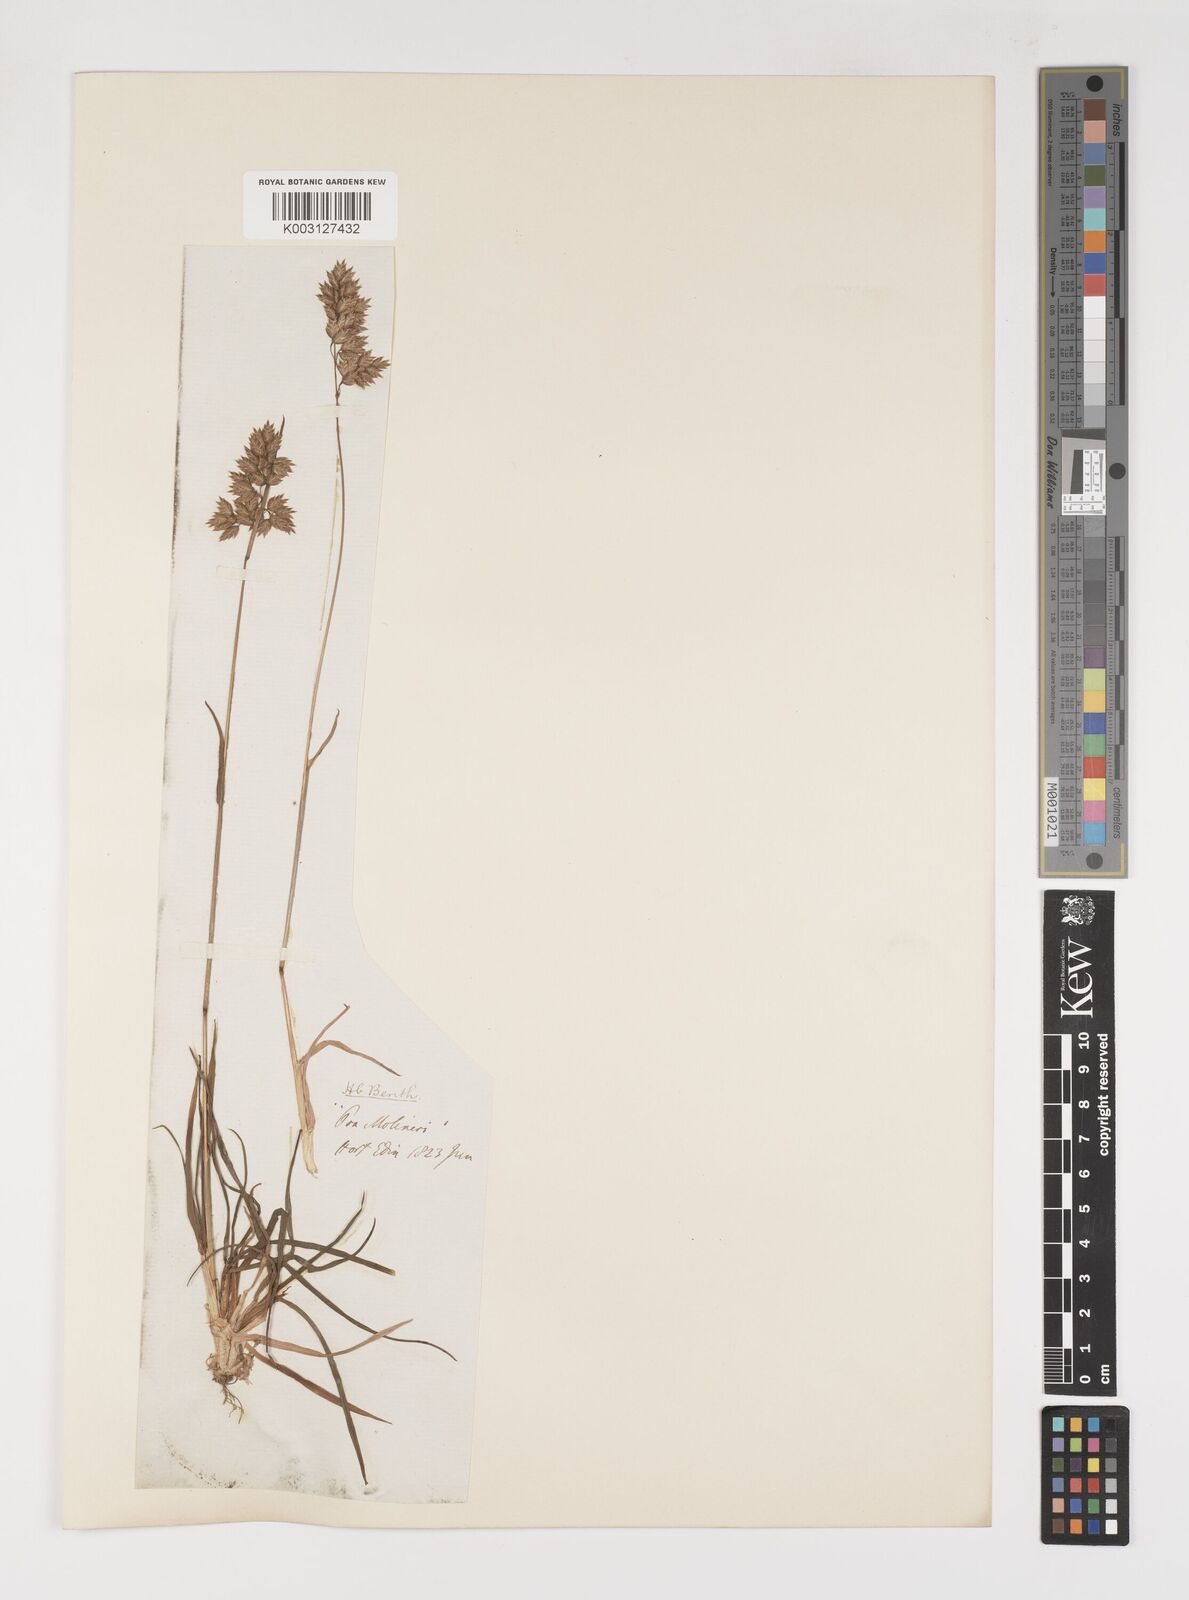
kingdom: Plantae
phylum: Tracheophyta
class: Liliopsida
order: Poales
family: Poaceae
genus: Poa
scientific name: Poa alpina
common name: Alpine bluegrass
